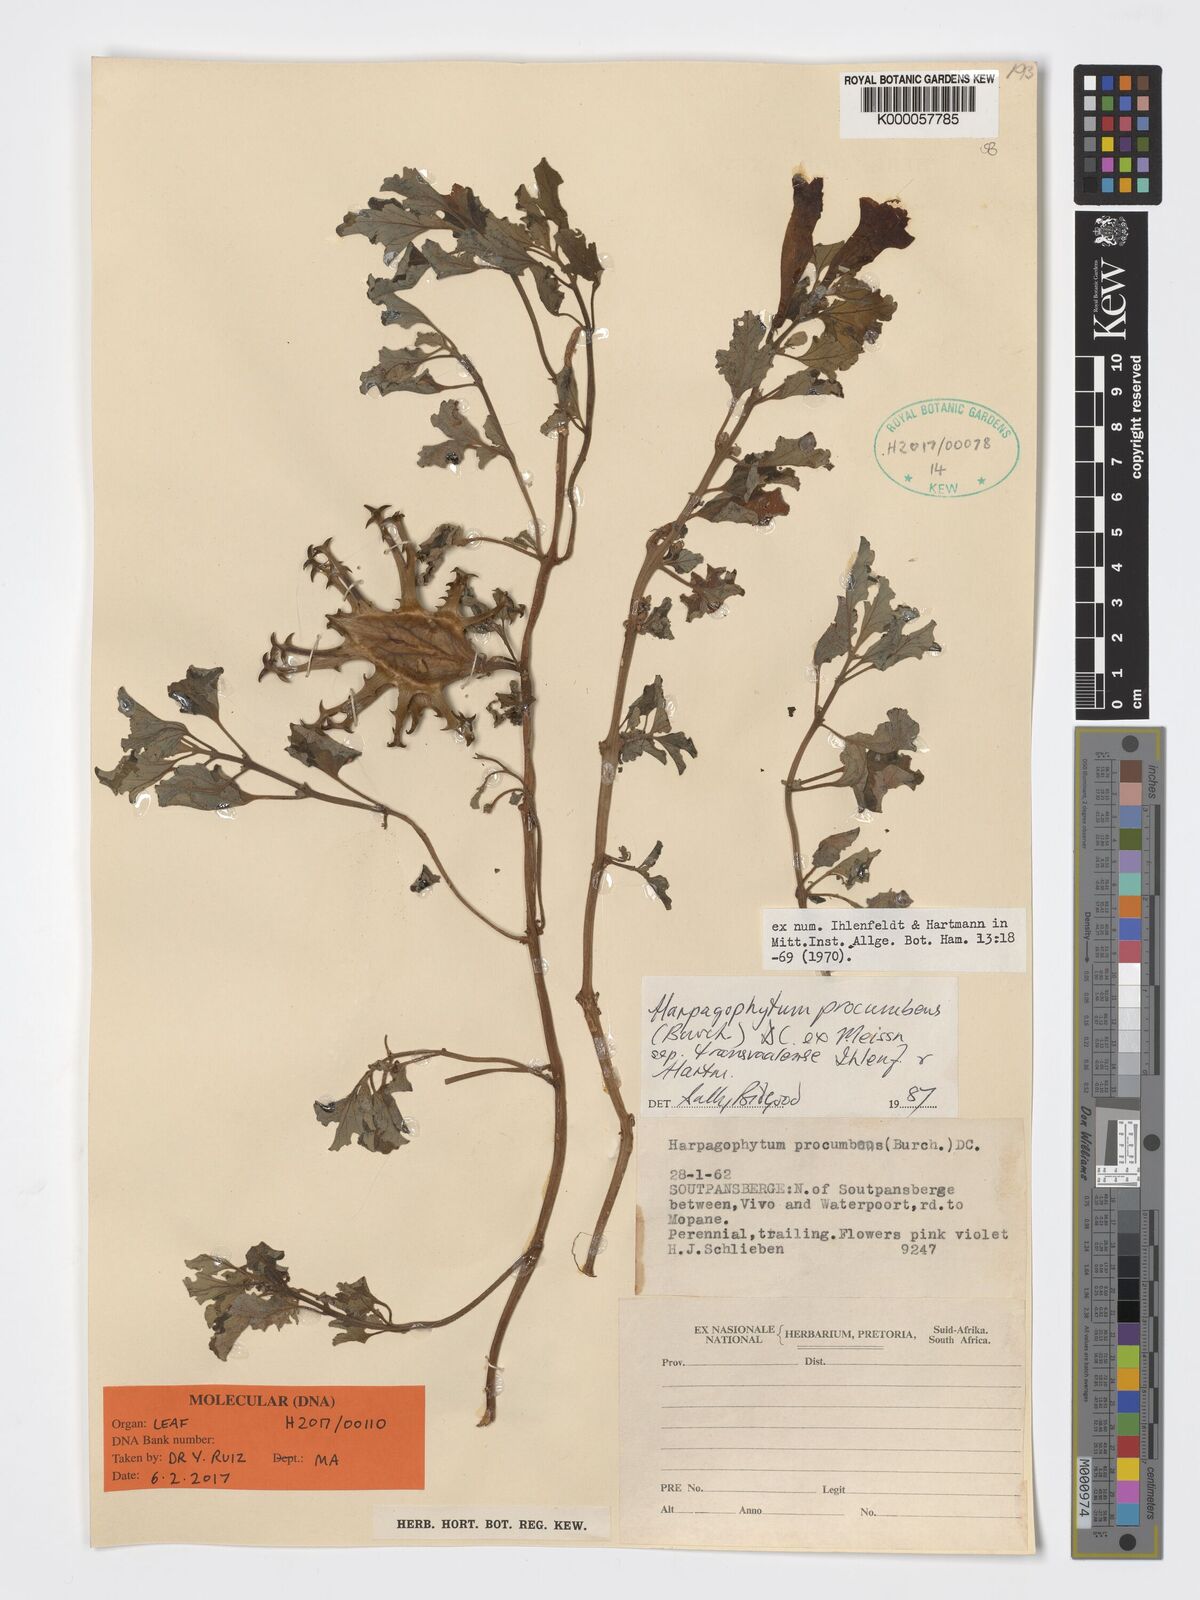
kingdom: Plantae
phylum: Tracheophyta
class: Magnoliopsida
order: Lamiales
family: Pedaliaceae
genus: Harpagophytum
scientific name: Harpagophytum procumbens
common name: Grappleplant
